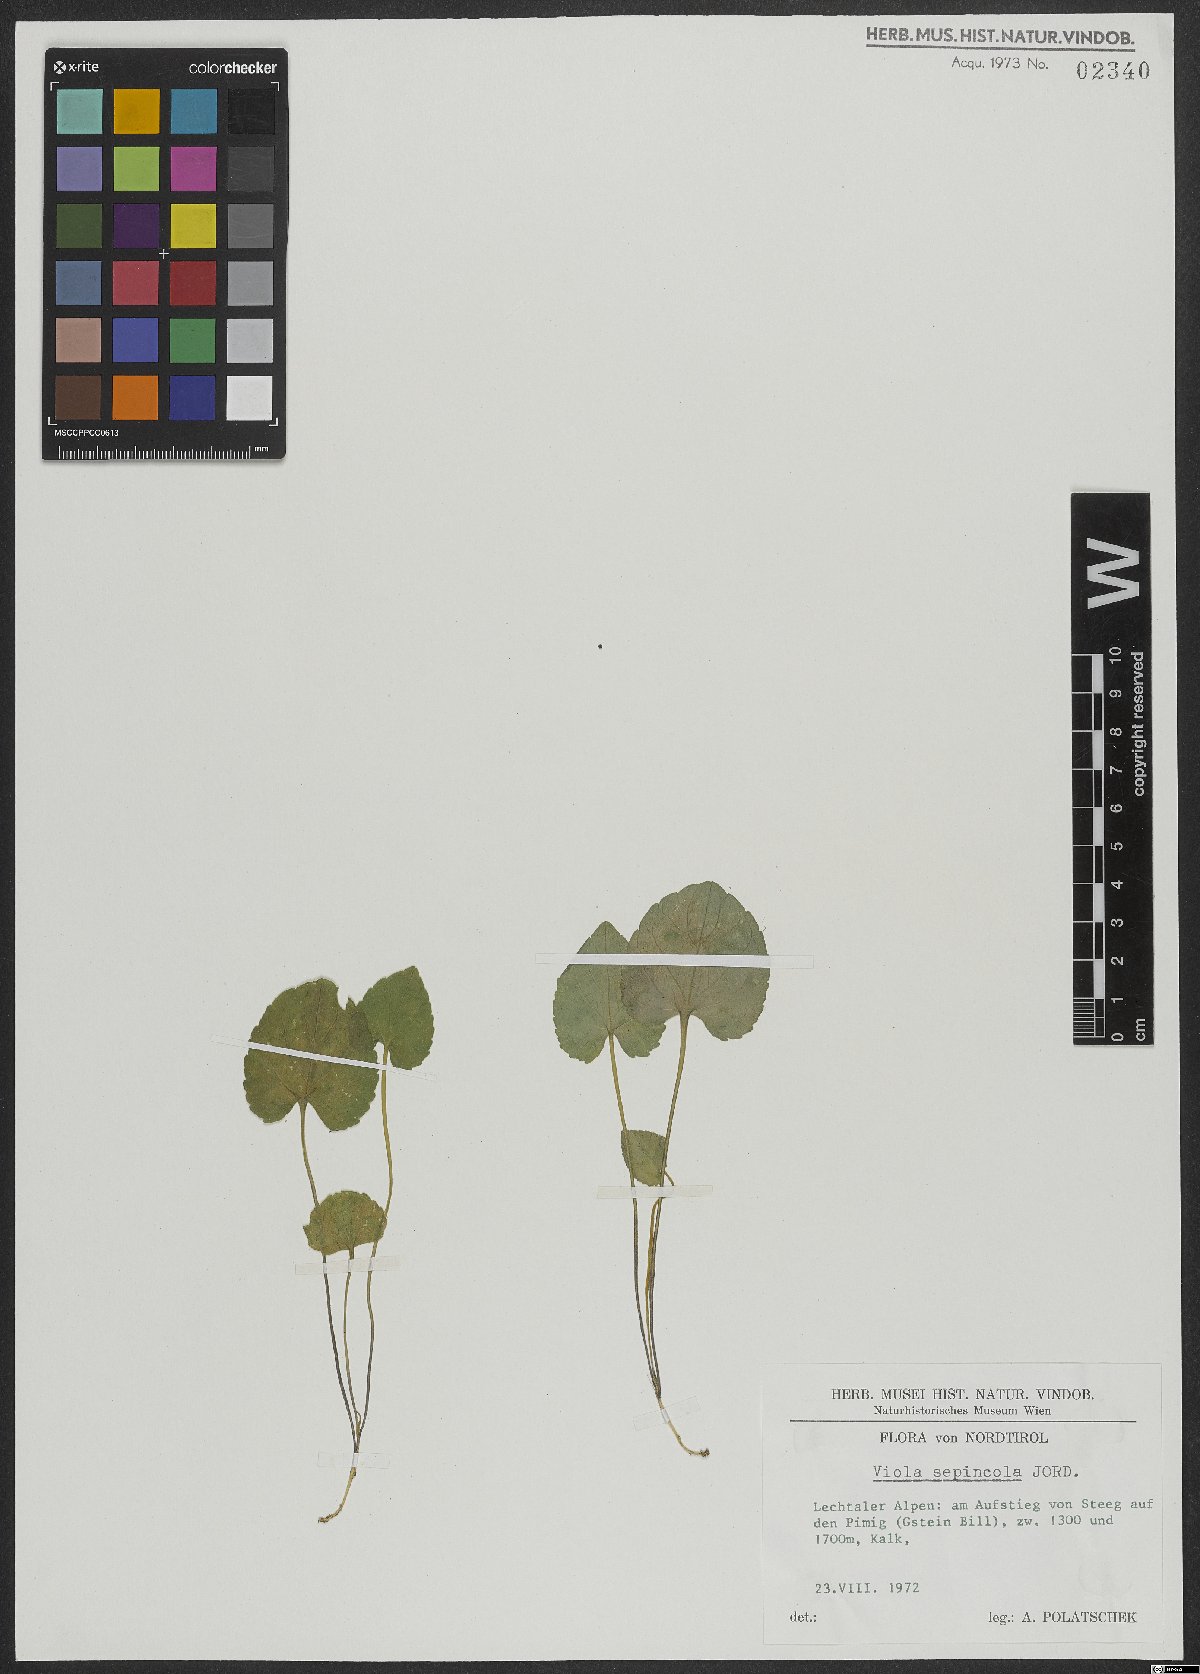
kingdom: Plantae
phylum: Tracheophyta
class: Magnoliopsida
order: Malpighiales
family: Violaceae
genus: Viola
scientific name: Viola suavis
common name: Russian violet
